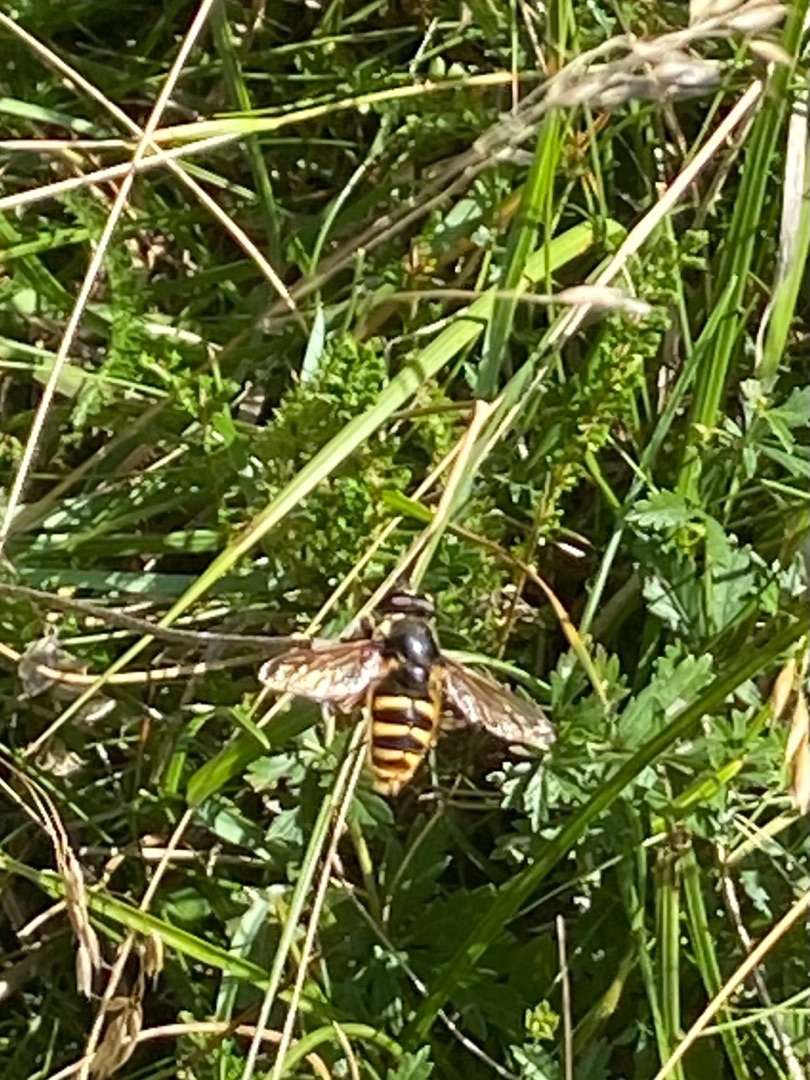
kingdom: Animalia
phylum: Arthropoda
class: Insecta
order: Diptera
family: Syrphidae
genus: Sericomyia
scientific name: Sericomyia silentis
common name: Tørve-silkesvirreflue
